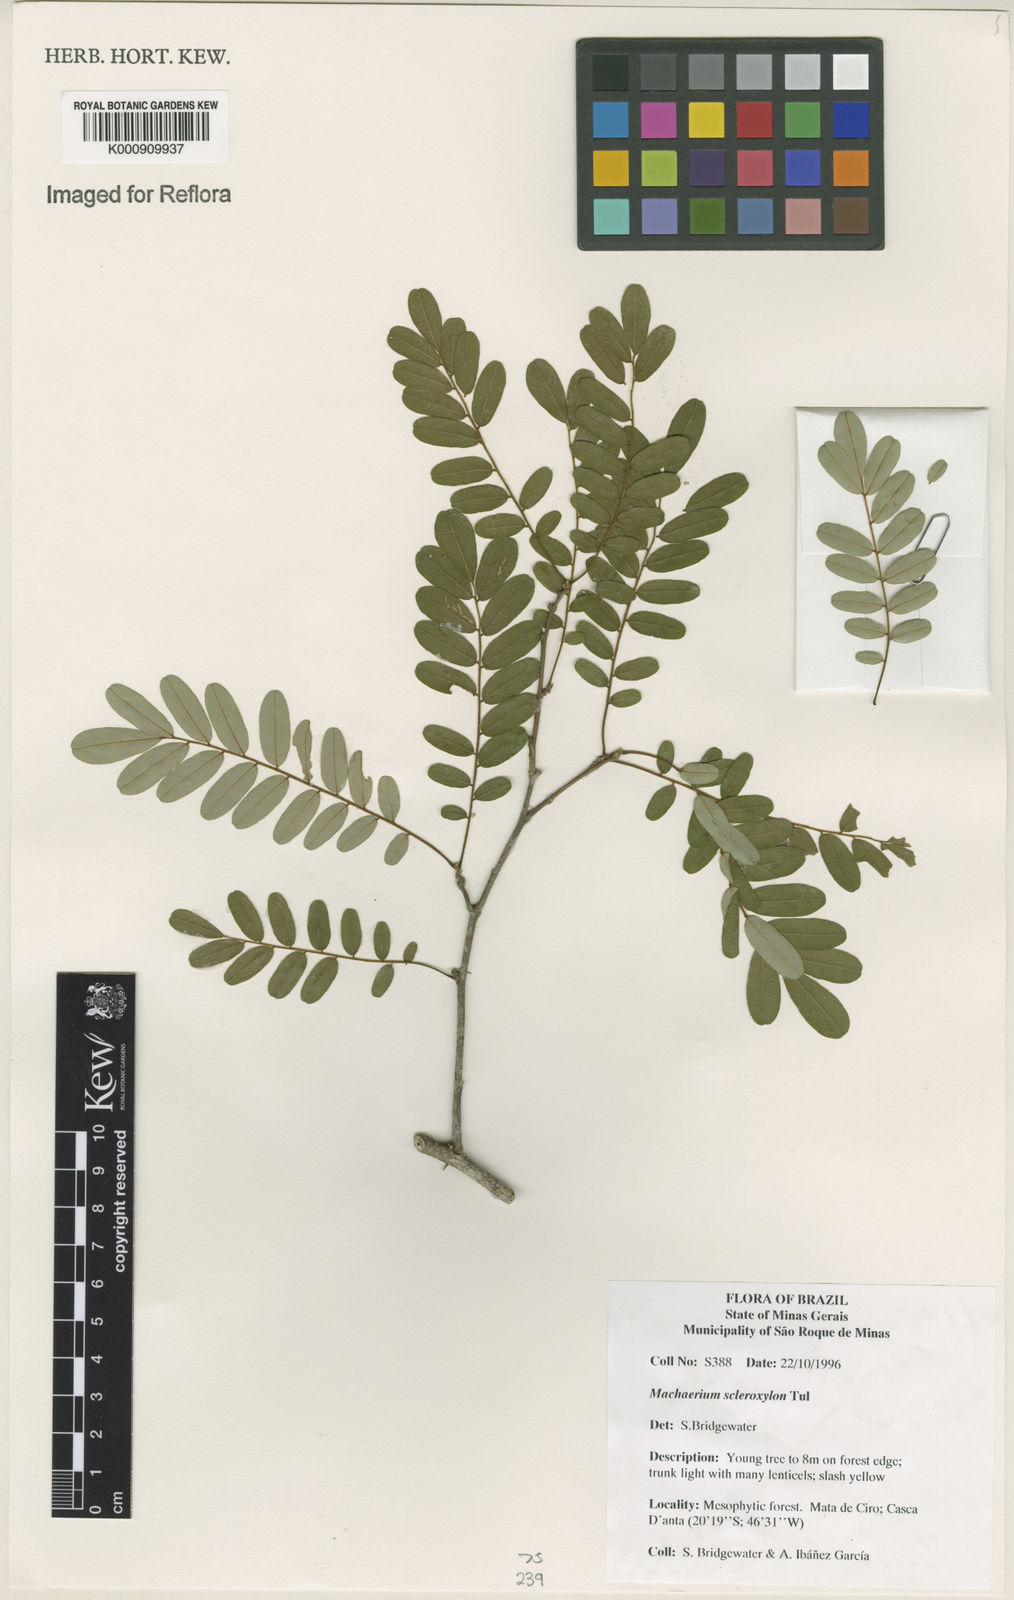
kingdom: Plantae
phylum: Tracheophyta
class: Magnoliopsida
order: Fabales
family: Fabaceae
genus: Machaerium
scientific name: Machaerium scleroxylon
